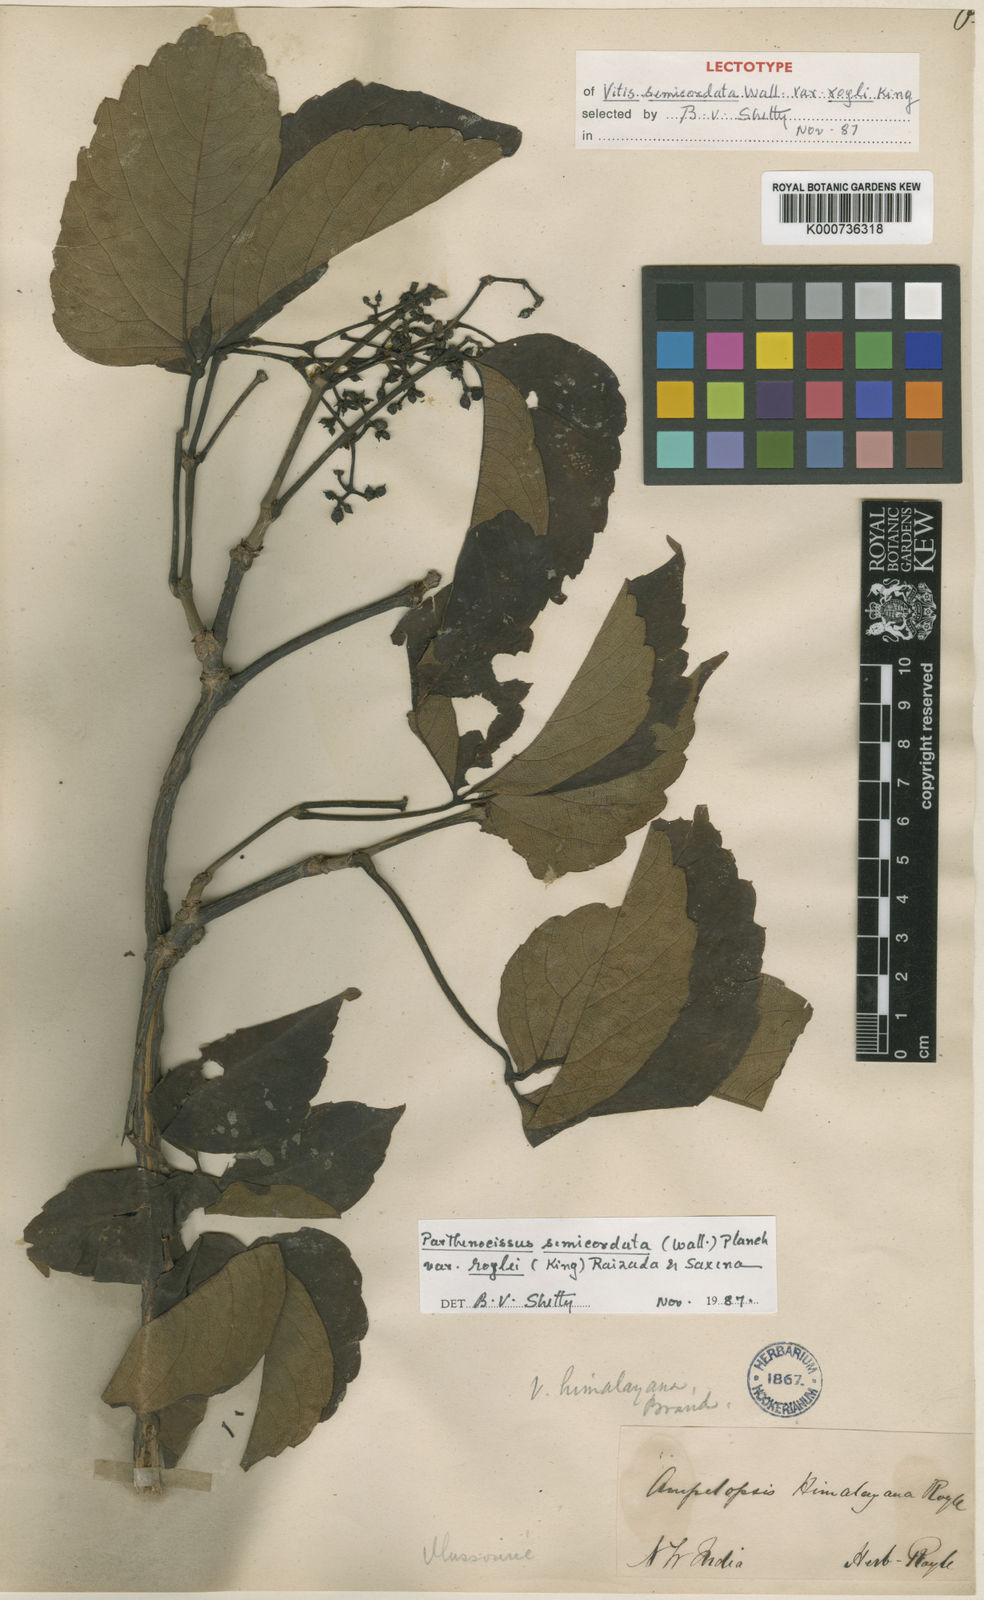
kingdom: Plantae
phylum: Tracheophyta
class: Magnoliopsida
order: Vitales
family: Vitaceae
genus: Parthenocissus
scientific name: Parthenocissus semicordata
